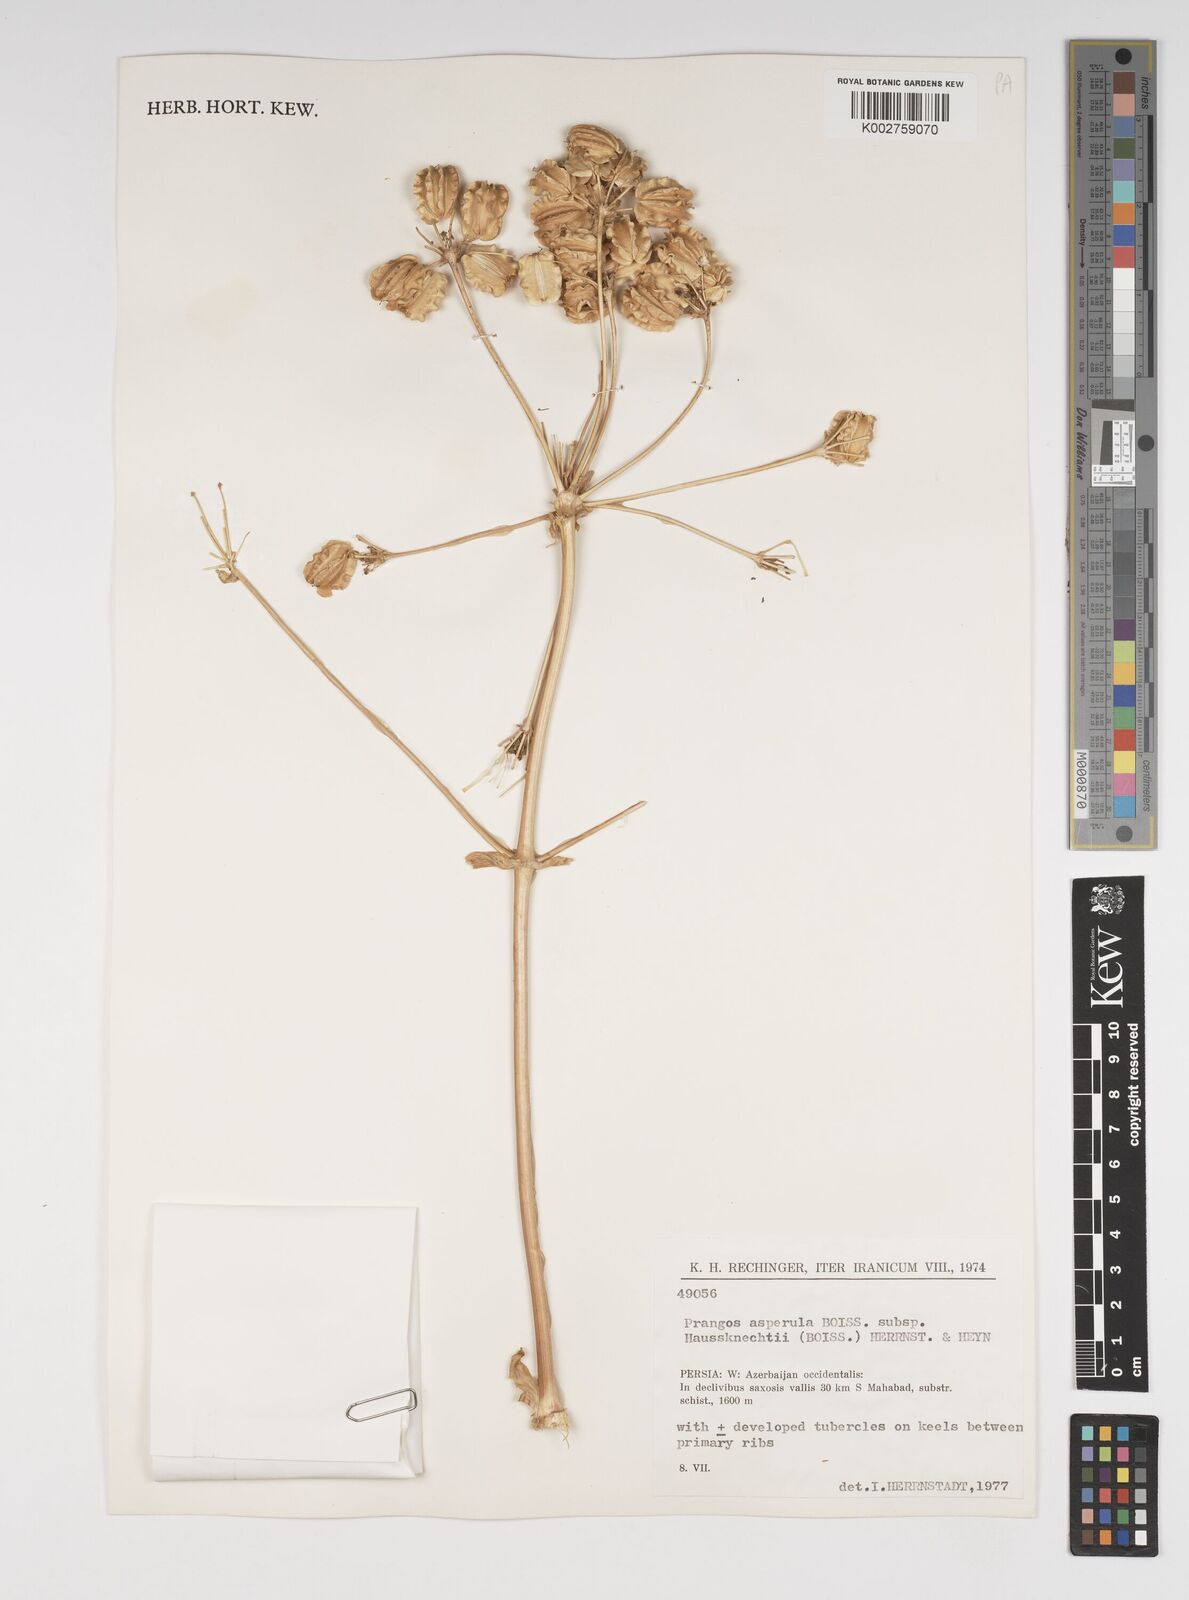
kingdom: Plantae
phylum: Tracheophyta
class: Magnoliopsida
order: Apiales
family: Apiaceae
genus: Prangos
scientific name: Prangos asperula
